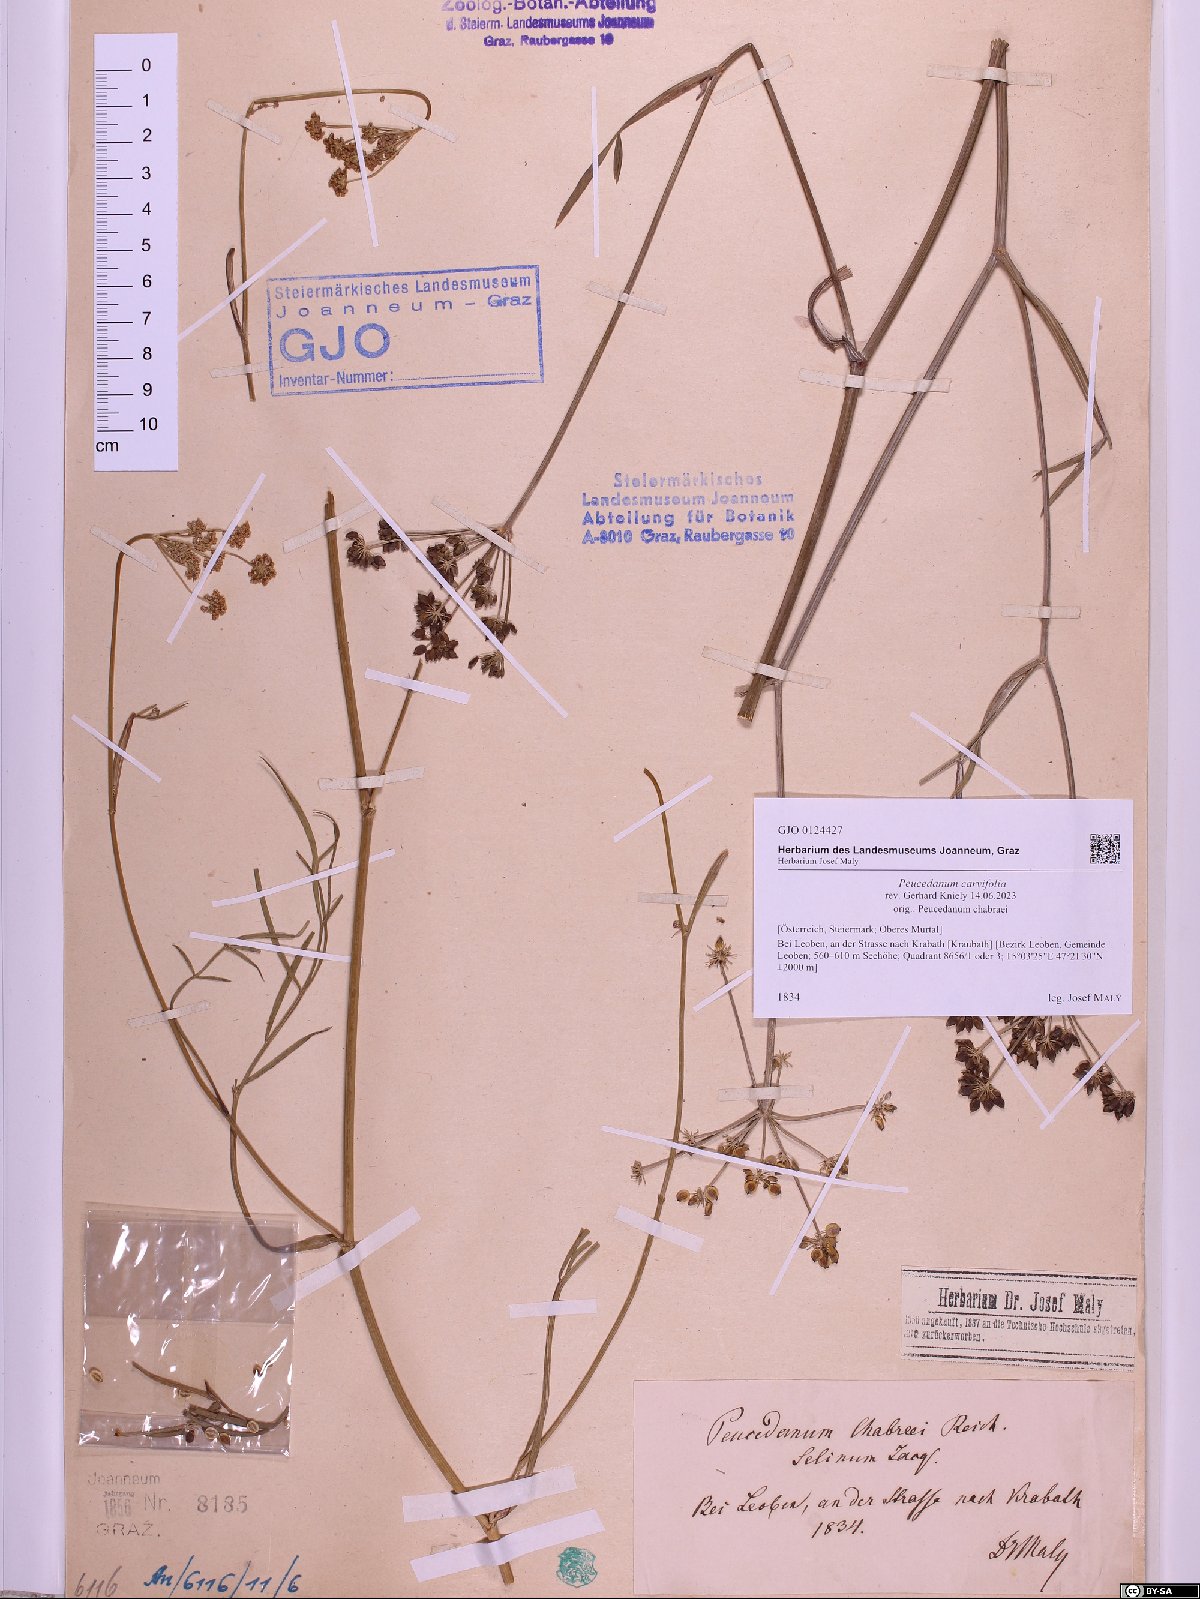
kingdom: Plantae
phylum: Tracheophyta
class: Magnoliopsida
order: Apiales
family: Apiaceae
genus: Dichoropetalum
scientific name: Dichoropetalum carvifolia
